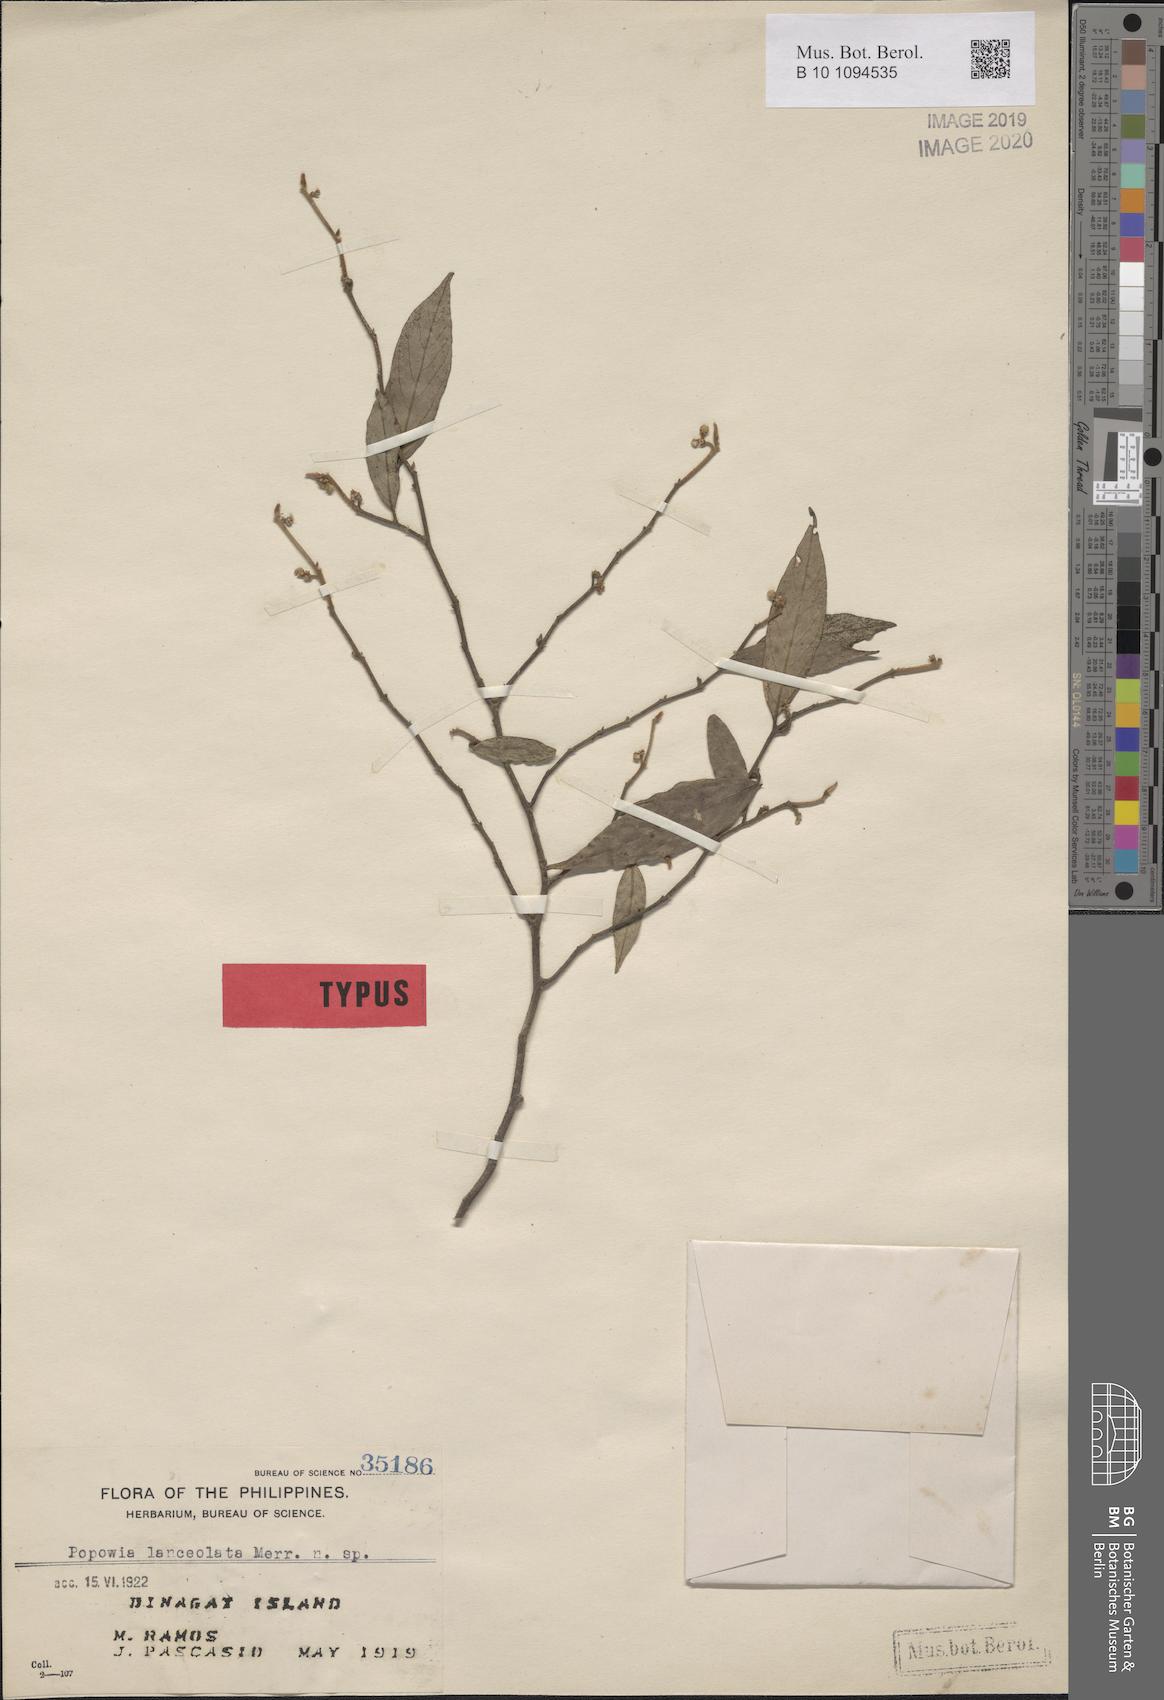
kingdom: Plantae
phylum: Tracheophyta
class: Magnoliopsida
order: Magnoliales
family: Annonaceae
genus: Popowia
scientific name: Popowia lanceolata
